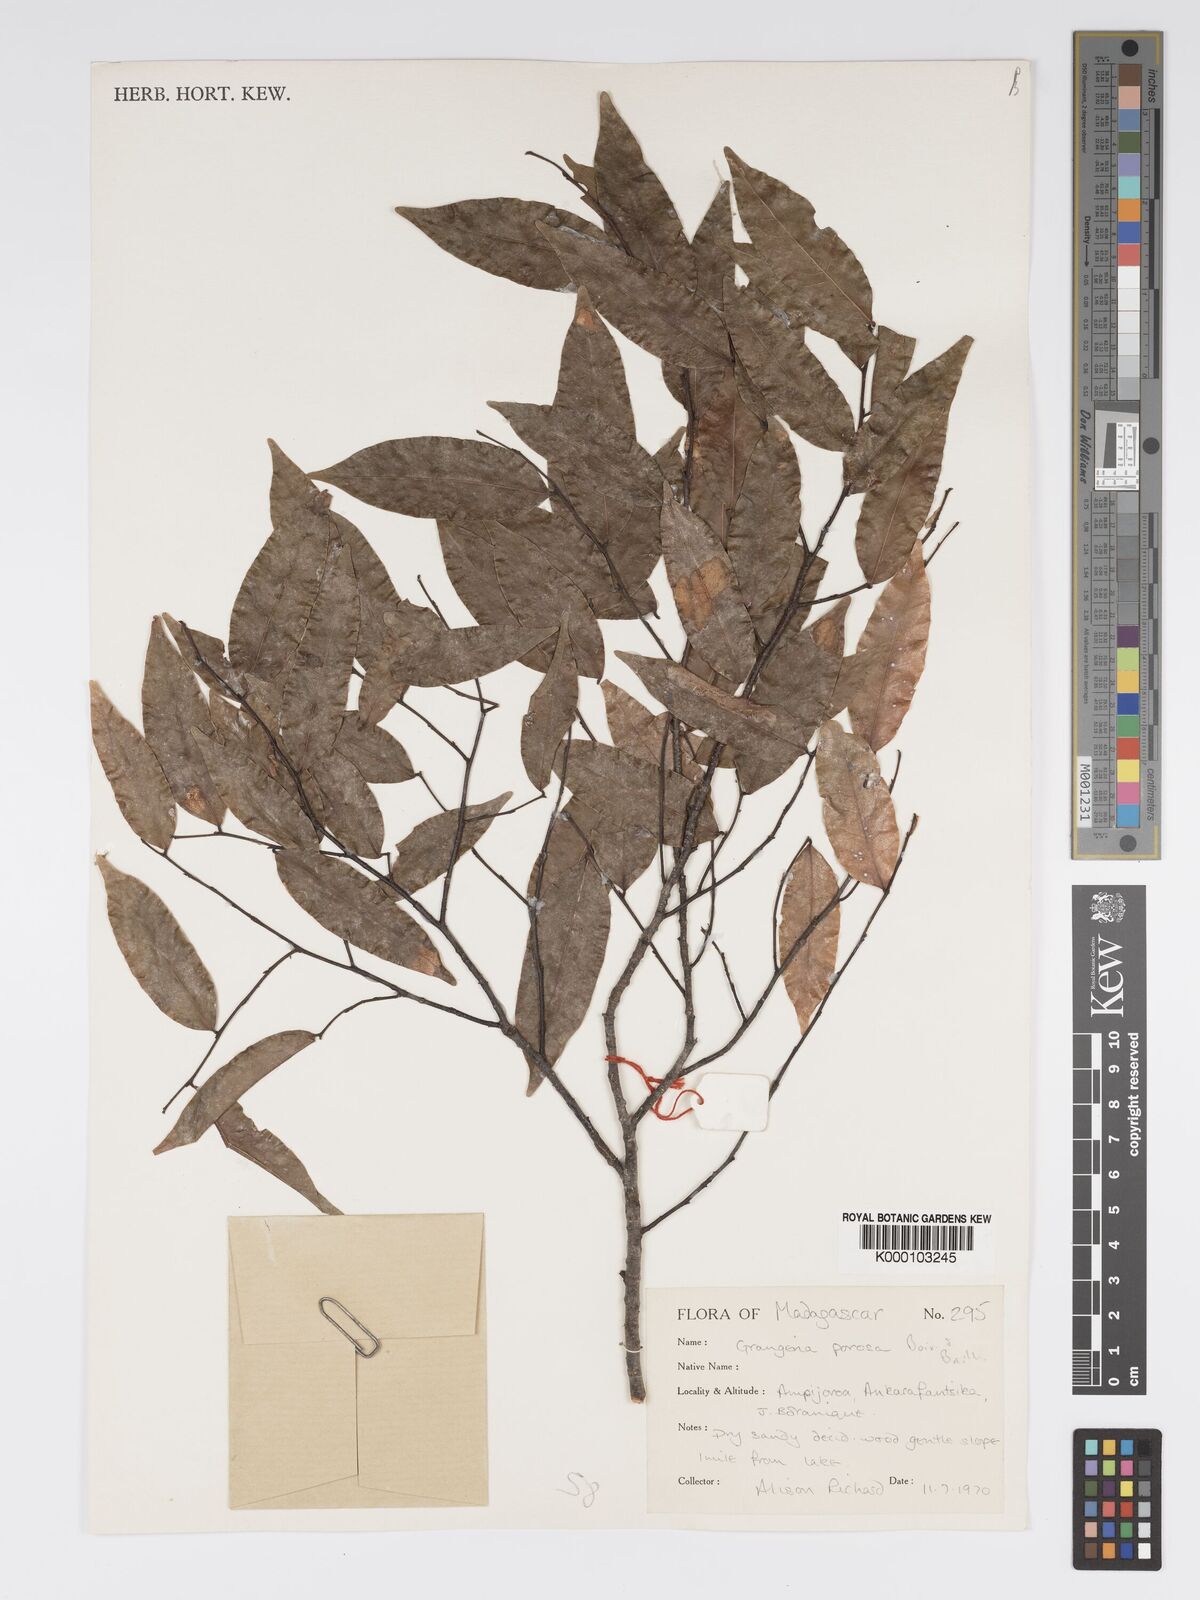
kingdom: Plantae
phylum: Tracheophyta
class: Magnoliopsida
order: Malpighiales
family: Chrysobalanaceae
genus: Grangeria
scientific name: Grangeria porosa
